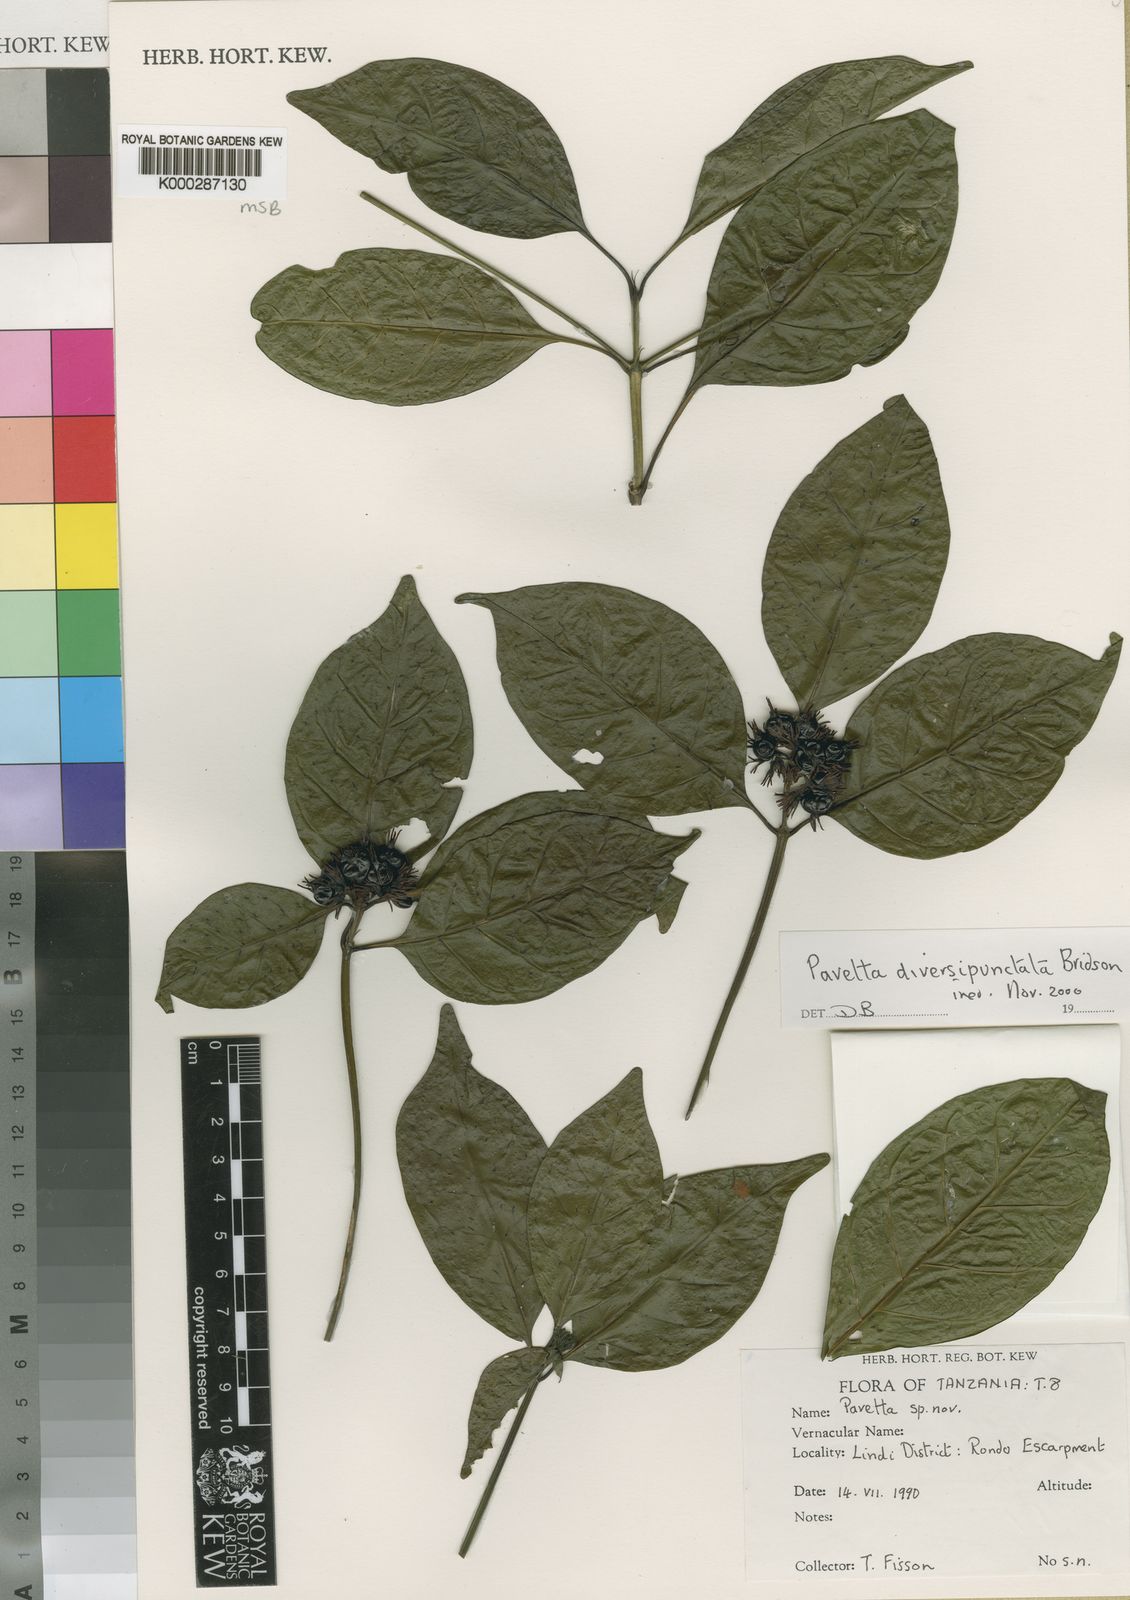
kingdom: Plantae
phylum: Tracheophyta
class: Magnoliopsida
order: Gentianales
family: Rubiaceae
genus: Pavetta
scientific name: Pavetta diversipunctata
